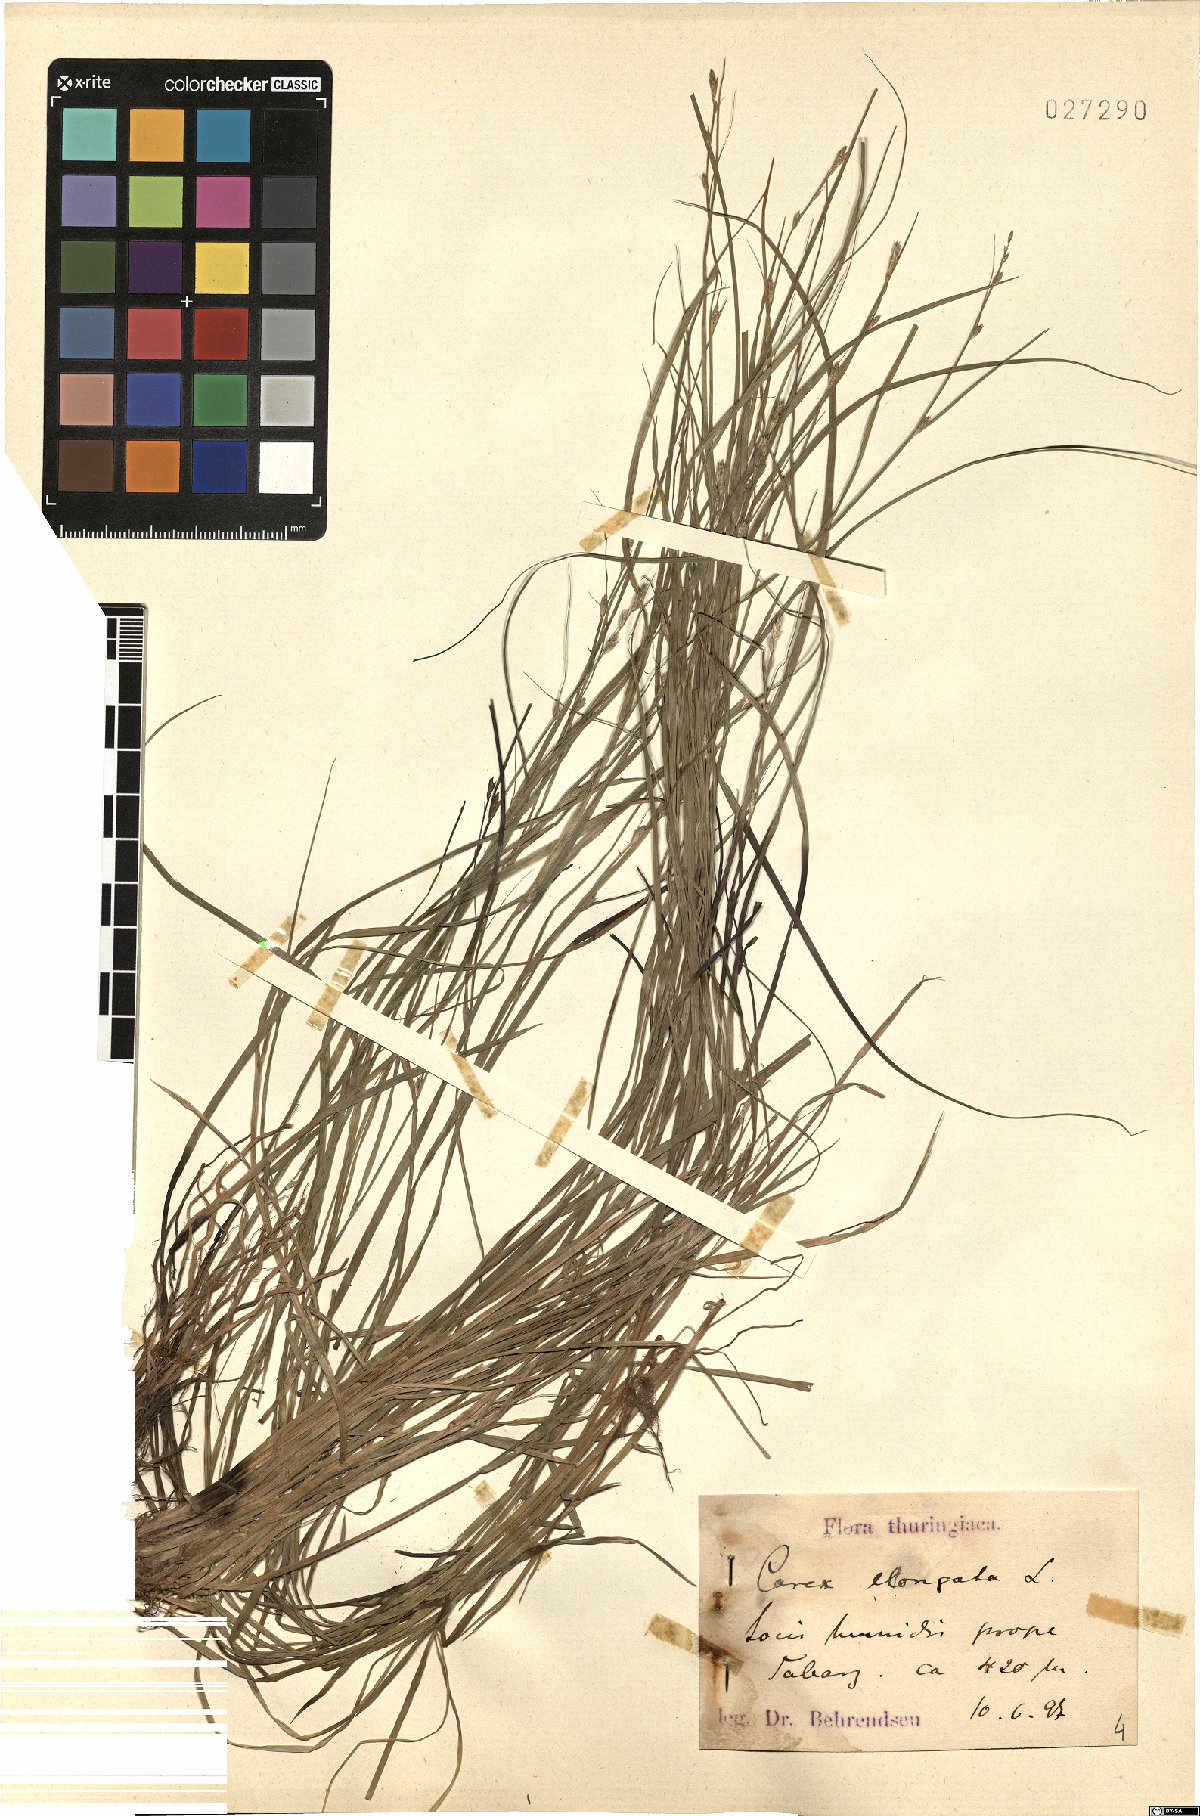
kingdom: Plantae
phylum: Tracheophyta
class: Liliopsida
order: Poales
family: Cyperaceae
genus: Carex
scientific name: Carex elongata
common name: Elongated sedge
